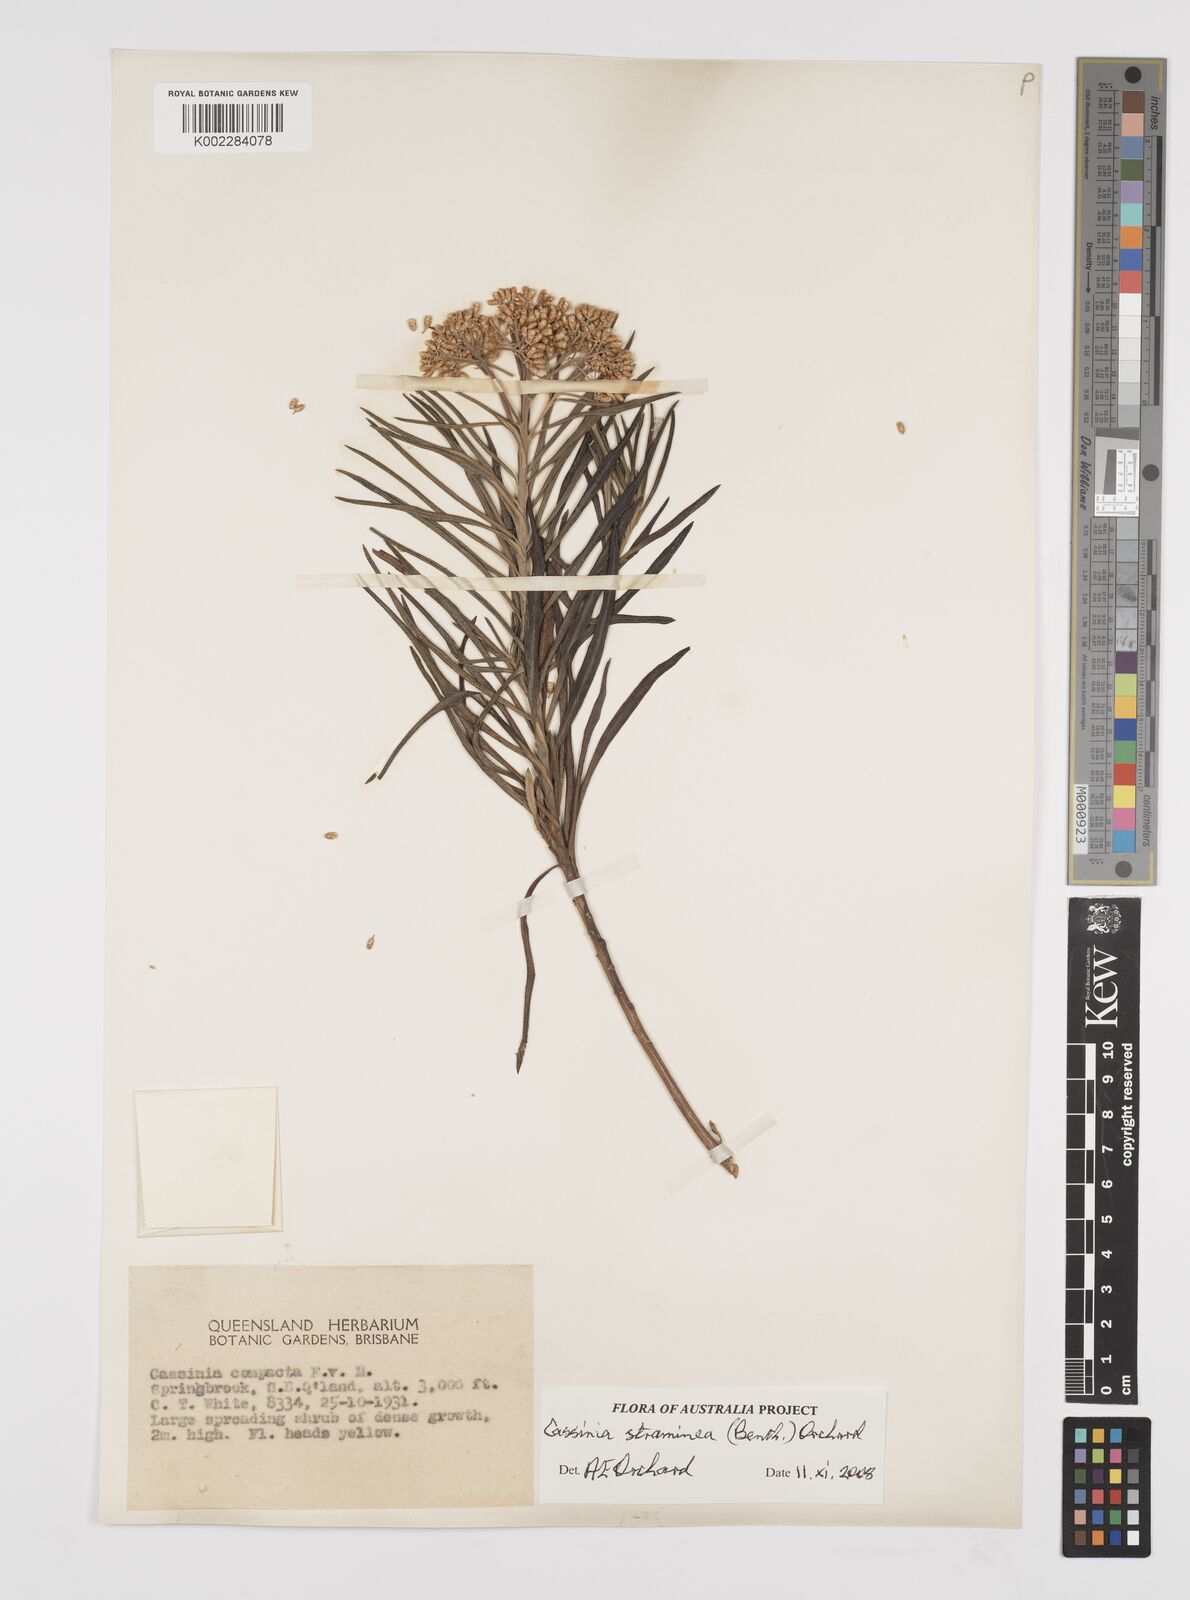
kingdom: Plantae
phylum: Tracheophyta
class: Magnoliopsida
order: Asterales
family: Asteraceae
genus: Cassinia
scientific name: Cassinia straminea
